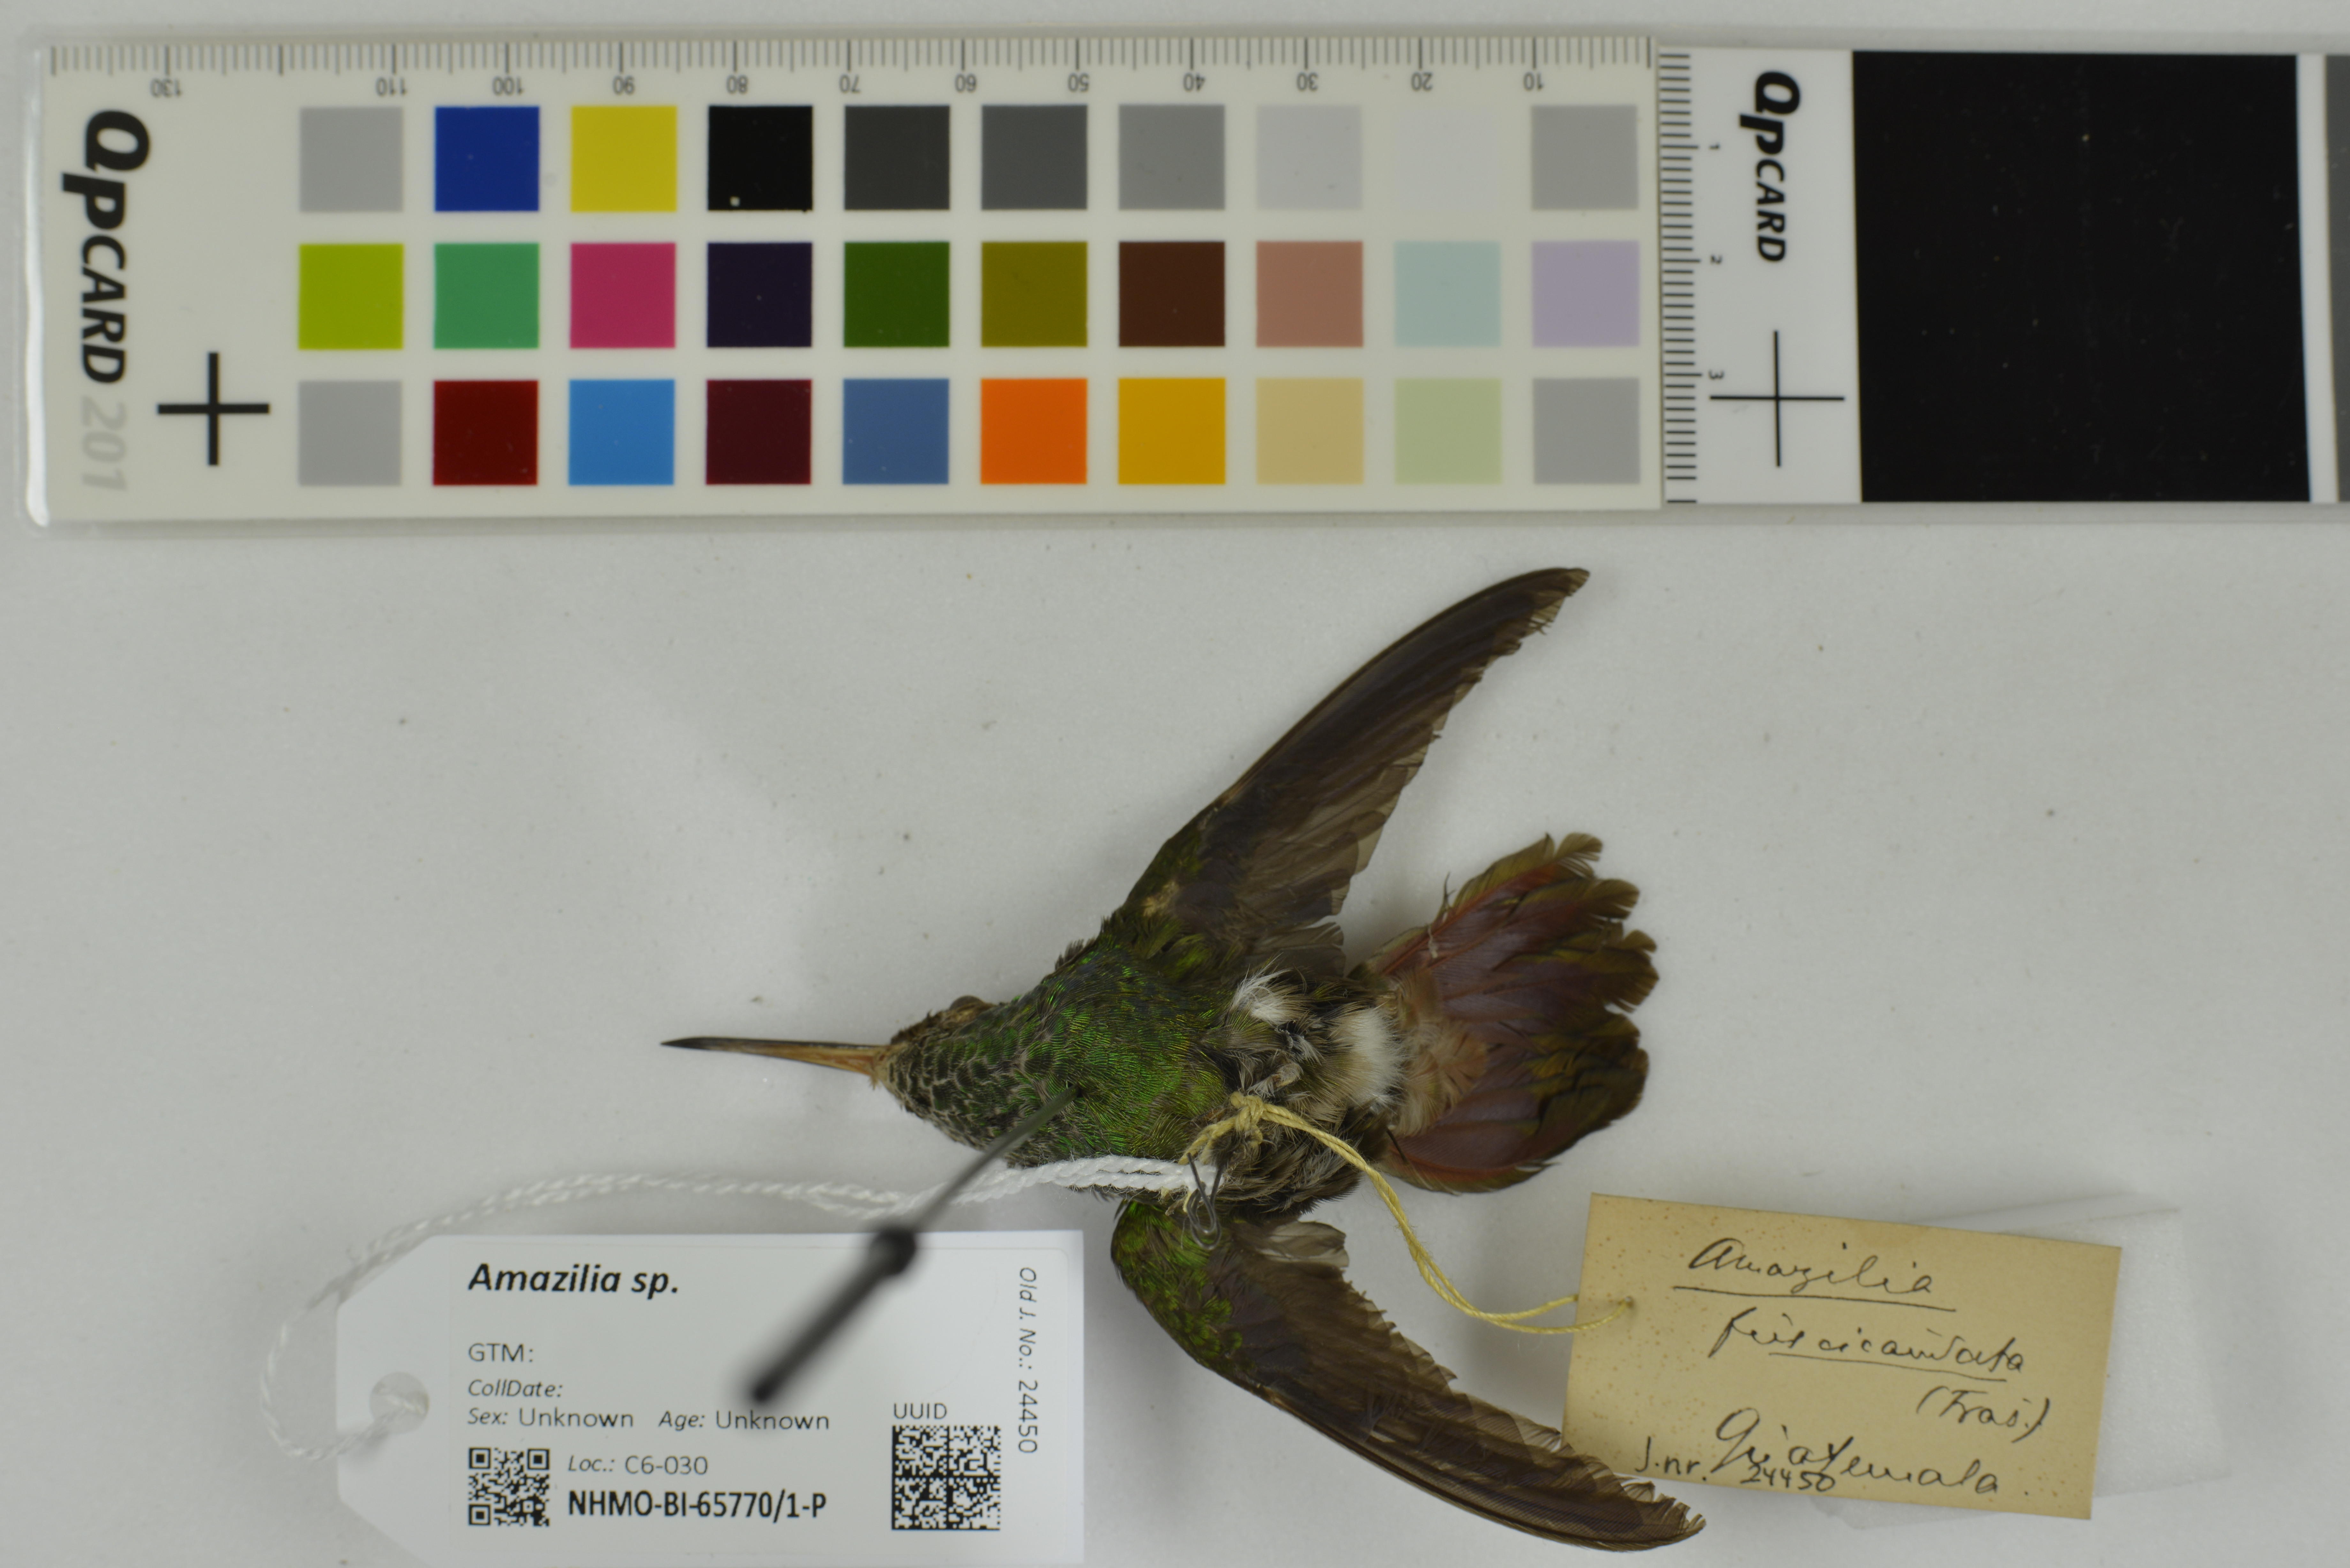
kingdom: Animalia
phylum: Chordata
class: Aves
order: Apodiformes
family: Trochilidae
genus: Amazilia
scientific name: Amazilia
